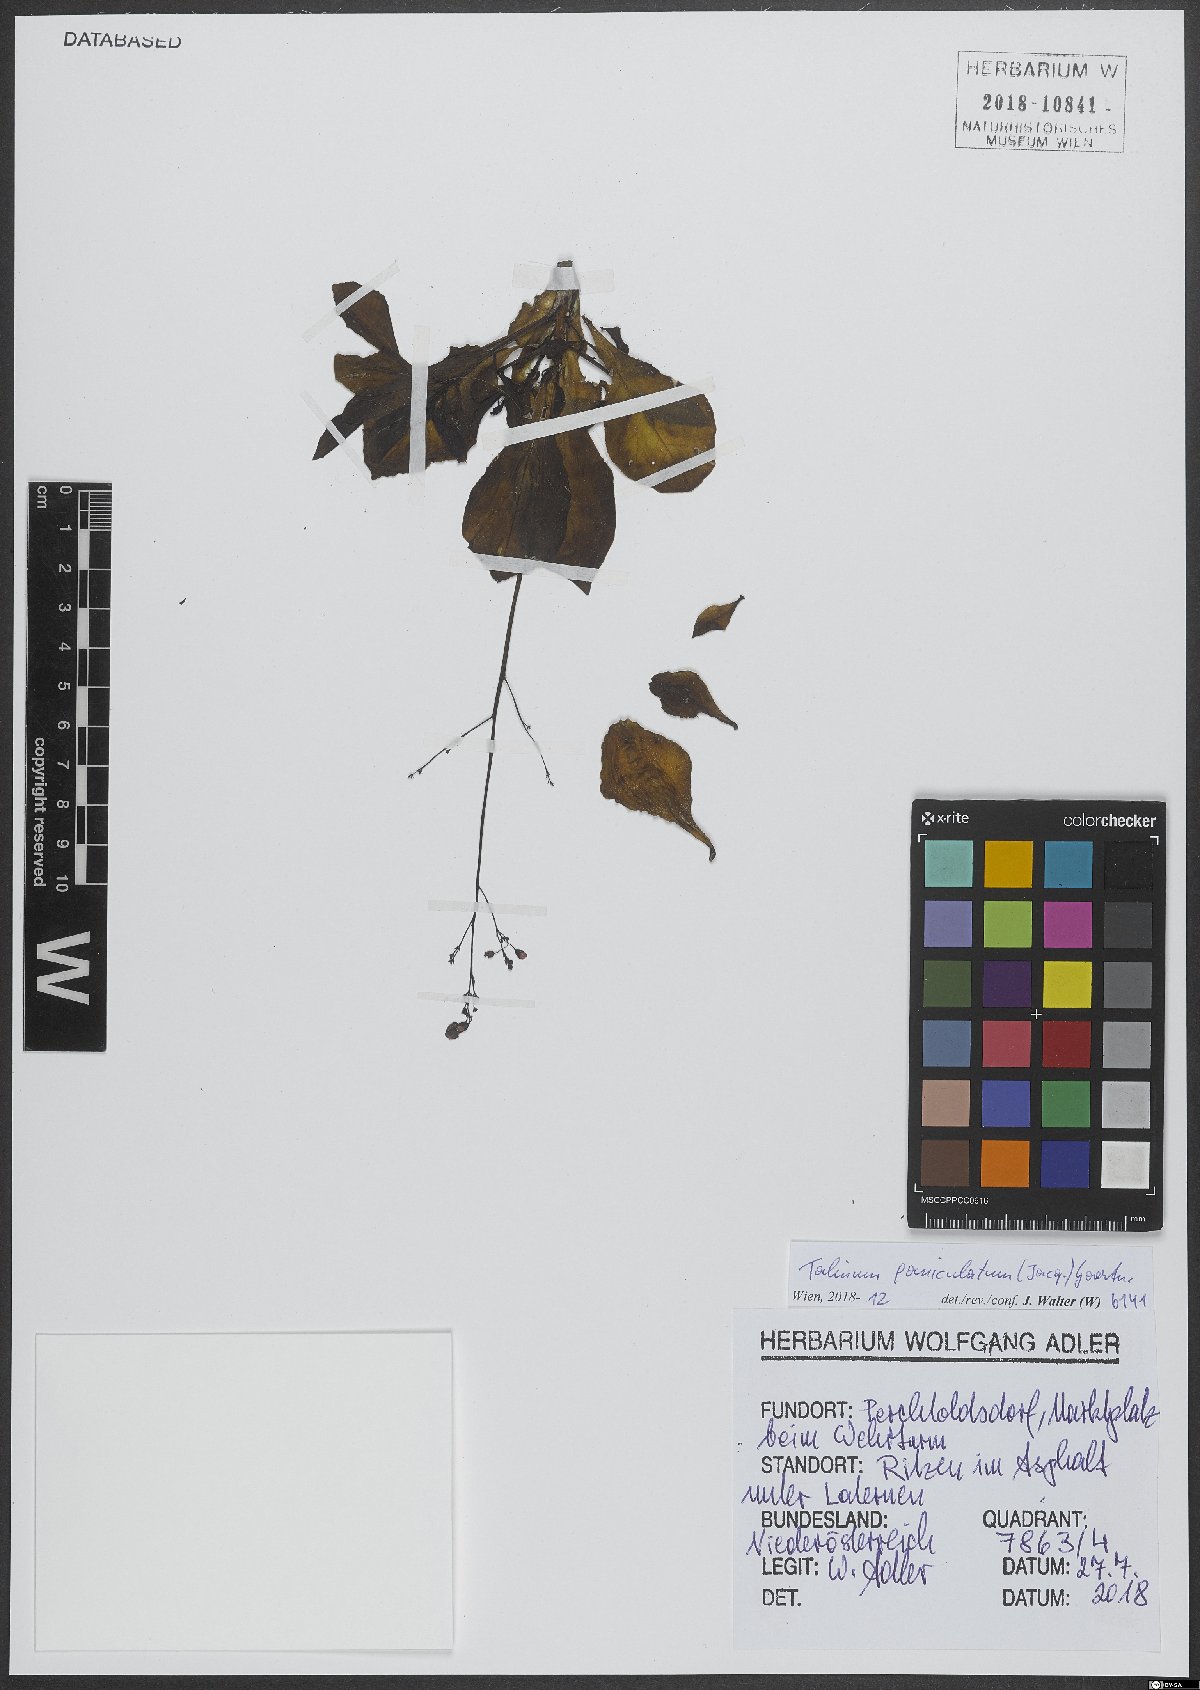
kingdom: Plantae
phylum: Tracheophyta
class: Magnoliopsida
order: Caryophyllales
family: Talinaceae
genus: Talinum
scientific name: Talinum paniculatum
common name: Jewels of opar
